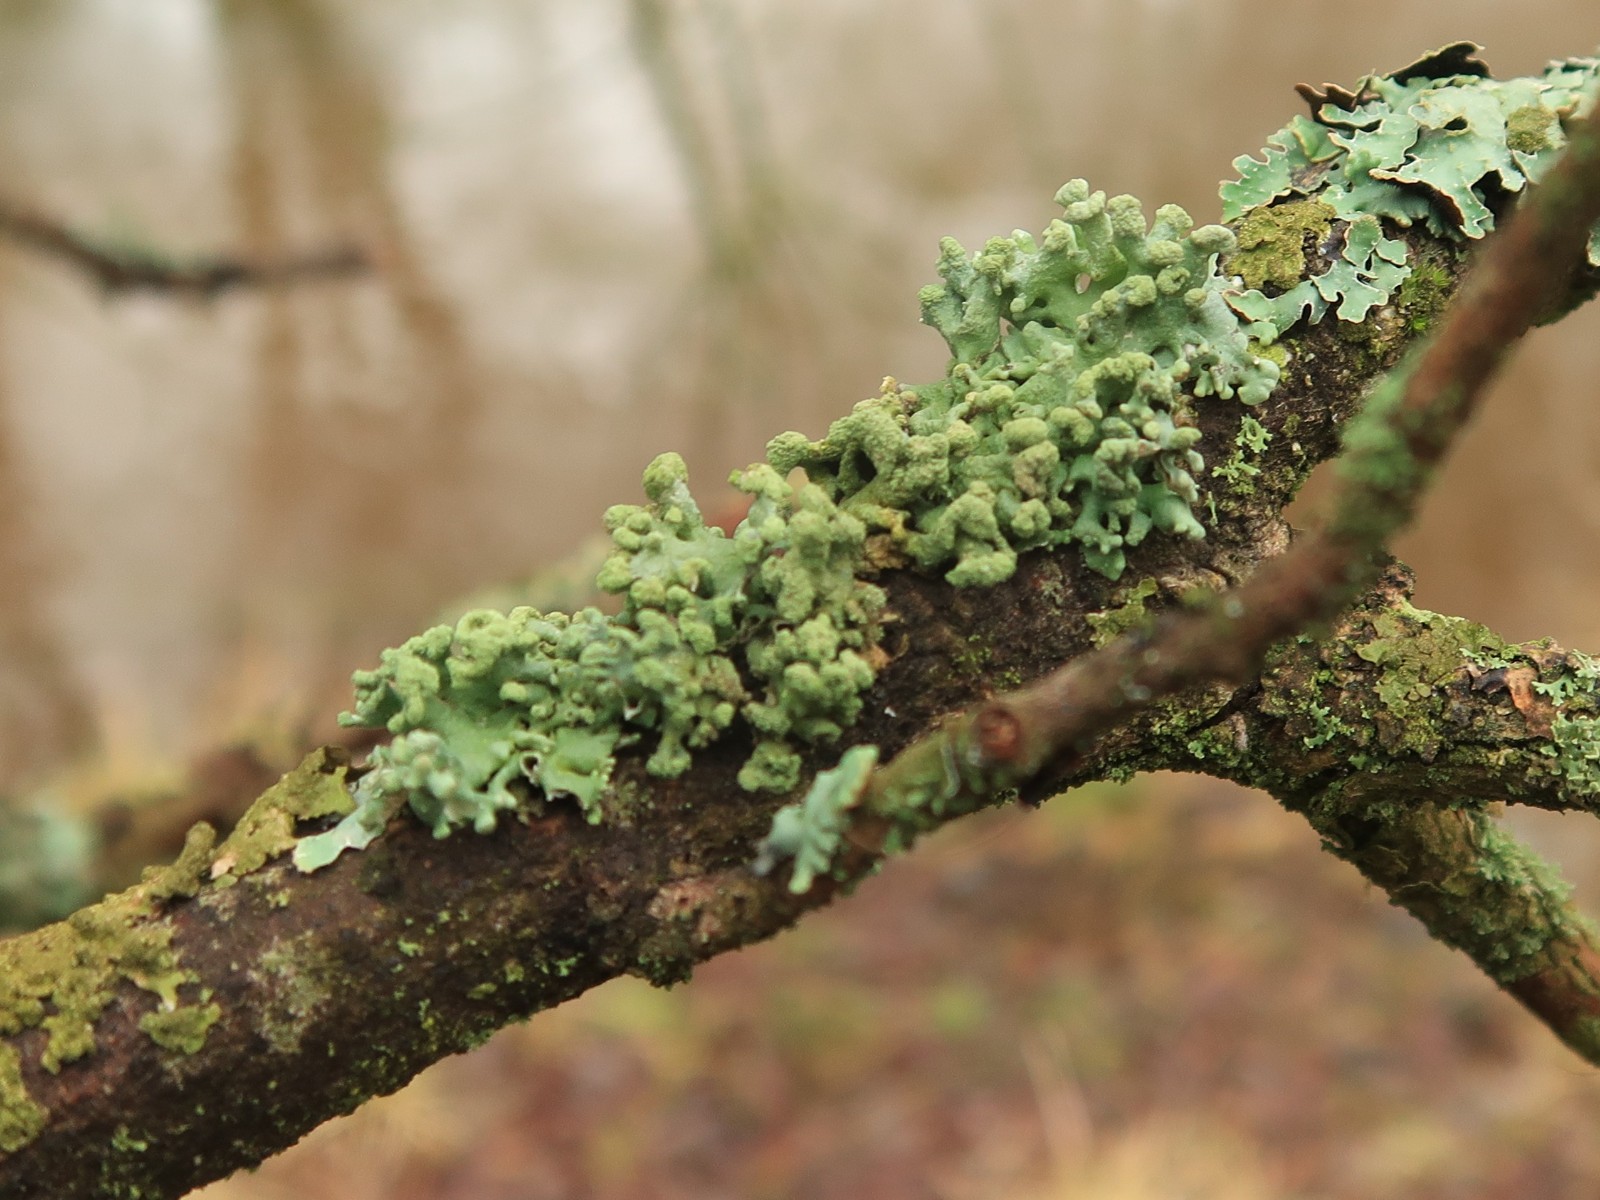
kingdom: Fungi
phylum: Ascomycota
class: Lecanoromycetes
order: Lecanorales
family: Parmeliaceae
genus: Hypogymnia
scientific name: Hypogymnia tubulosa
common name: finger-kvistlav
